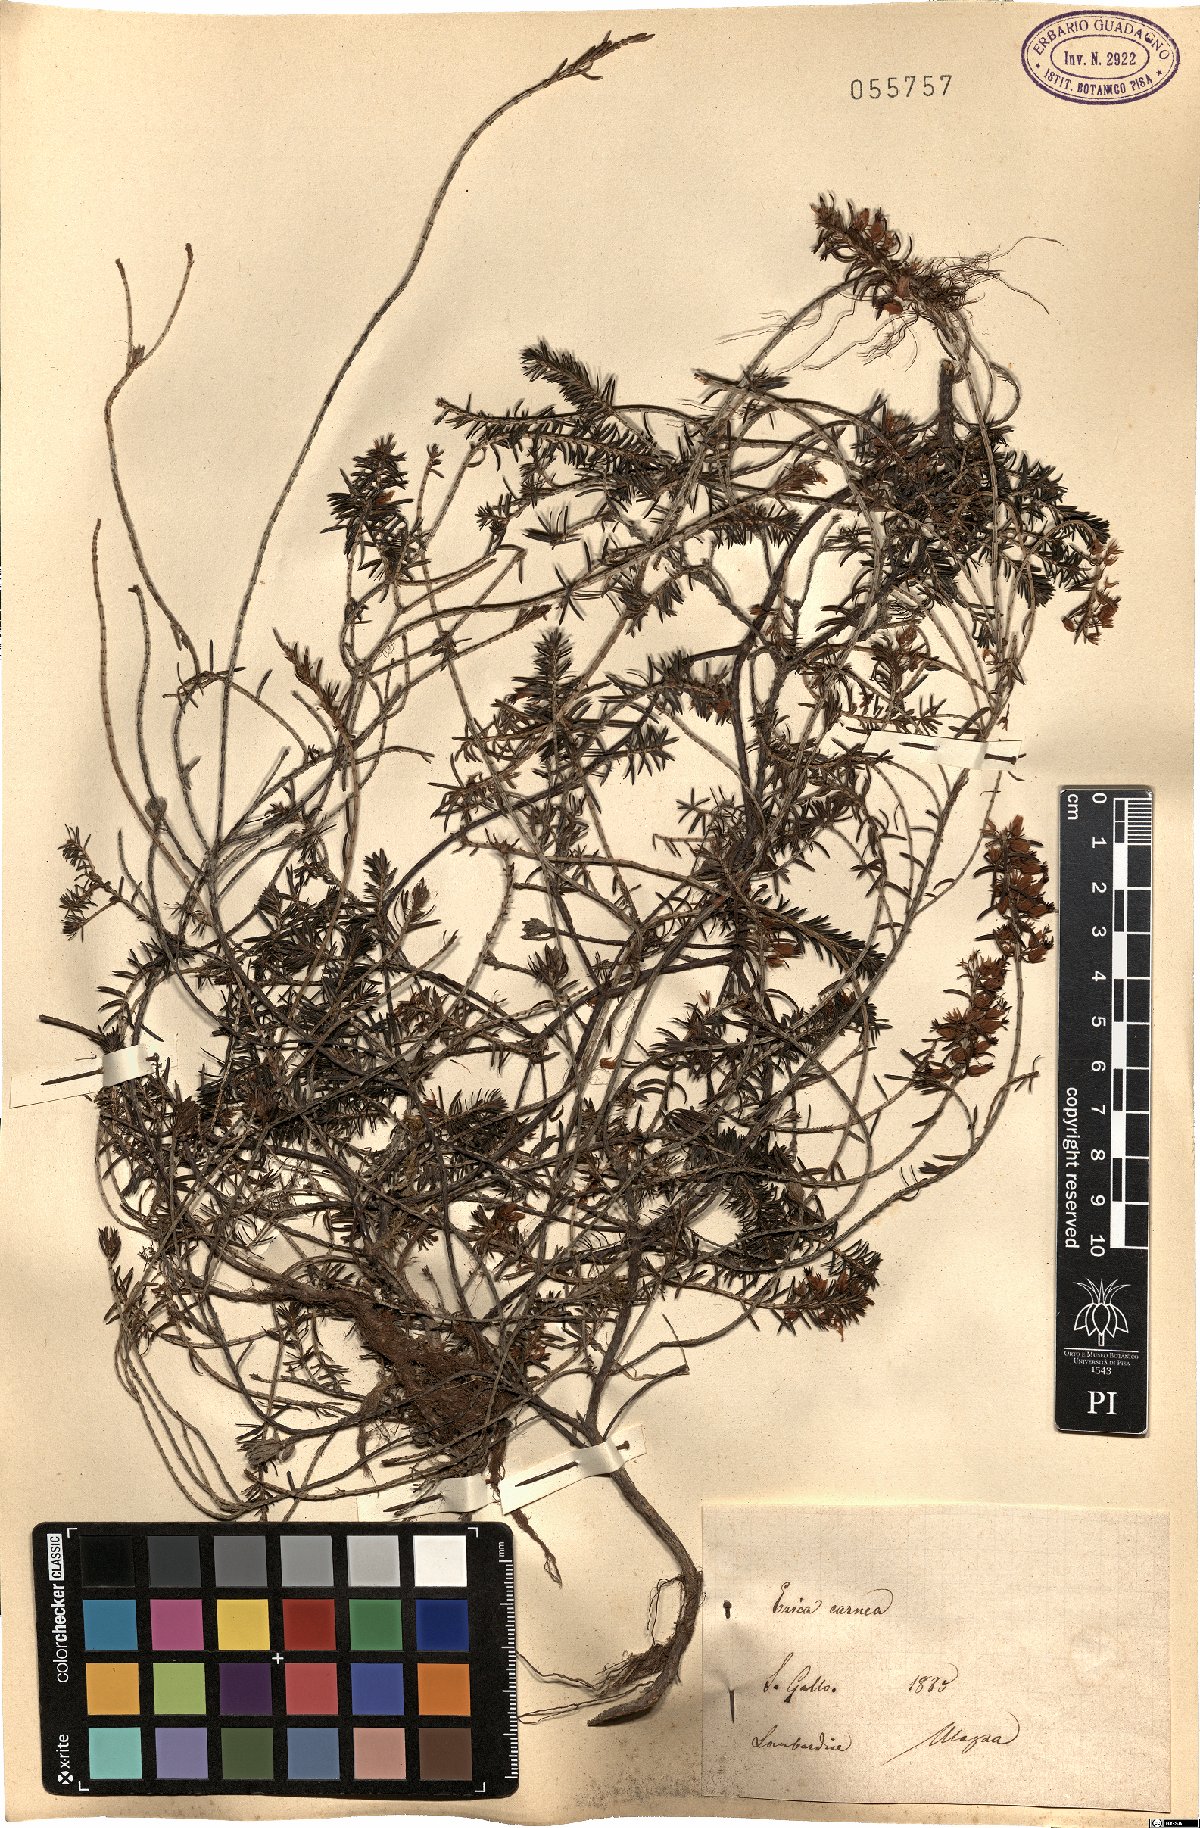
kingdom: Plantae
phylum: Tracheophyta
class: Magnoliopsida
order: Ericales
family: Ericaceae
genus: Erica
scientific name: Erica carnea
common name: Winter heath
